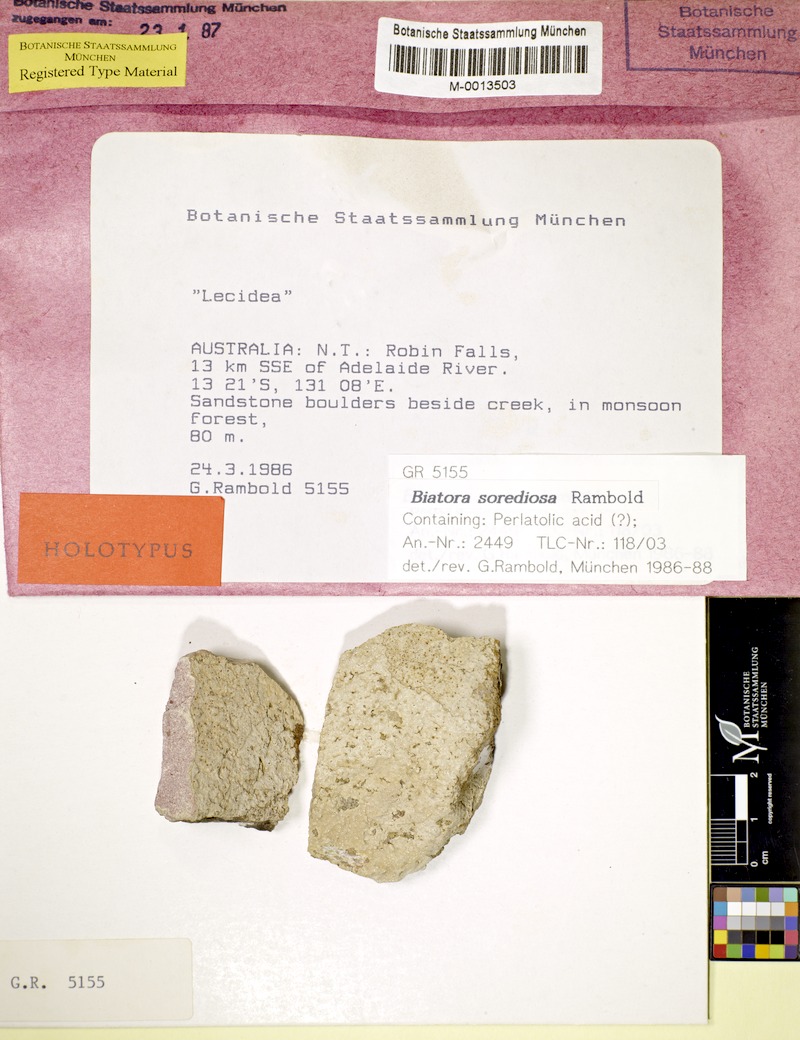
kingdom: Fungi
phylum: Ascomycota
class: Lecanoromycetes
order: Lecanorales
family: Lecanoraceae
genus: Lecanora
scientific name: Lecanora austrosorediosa
